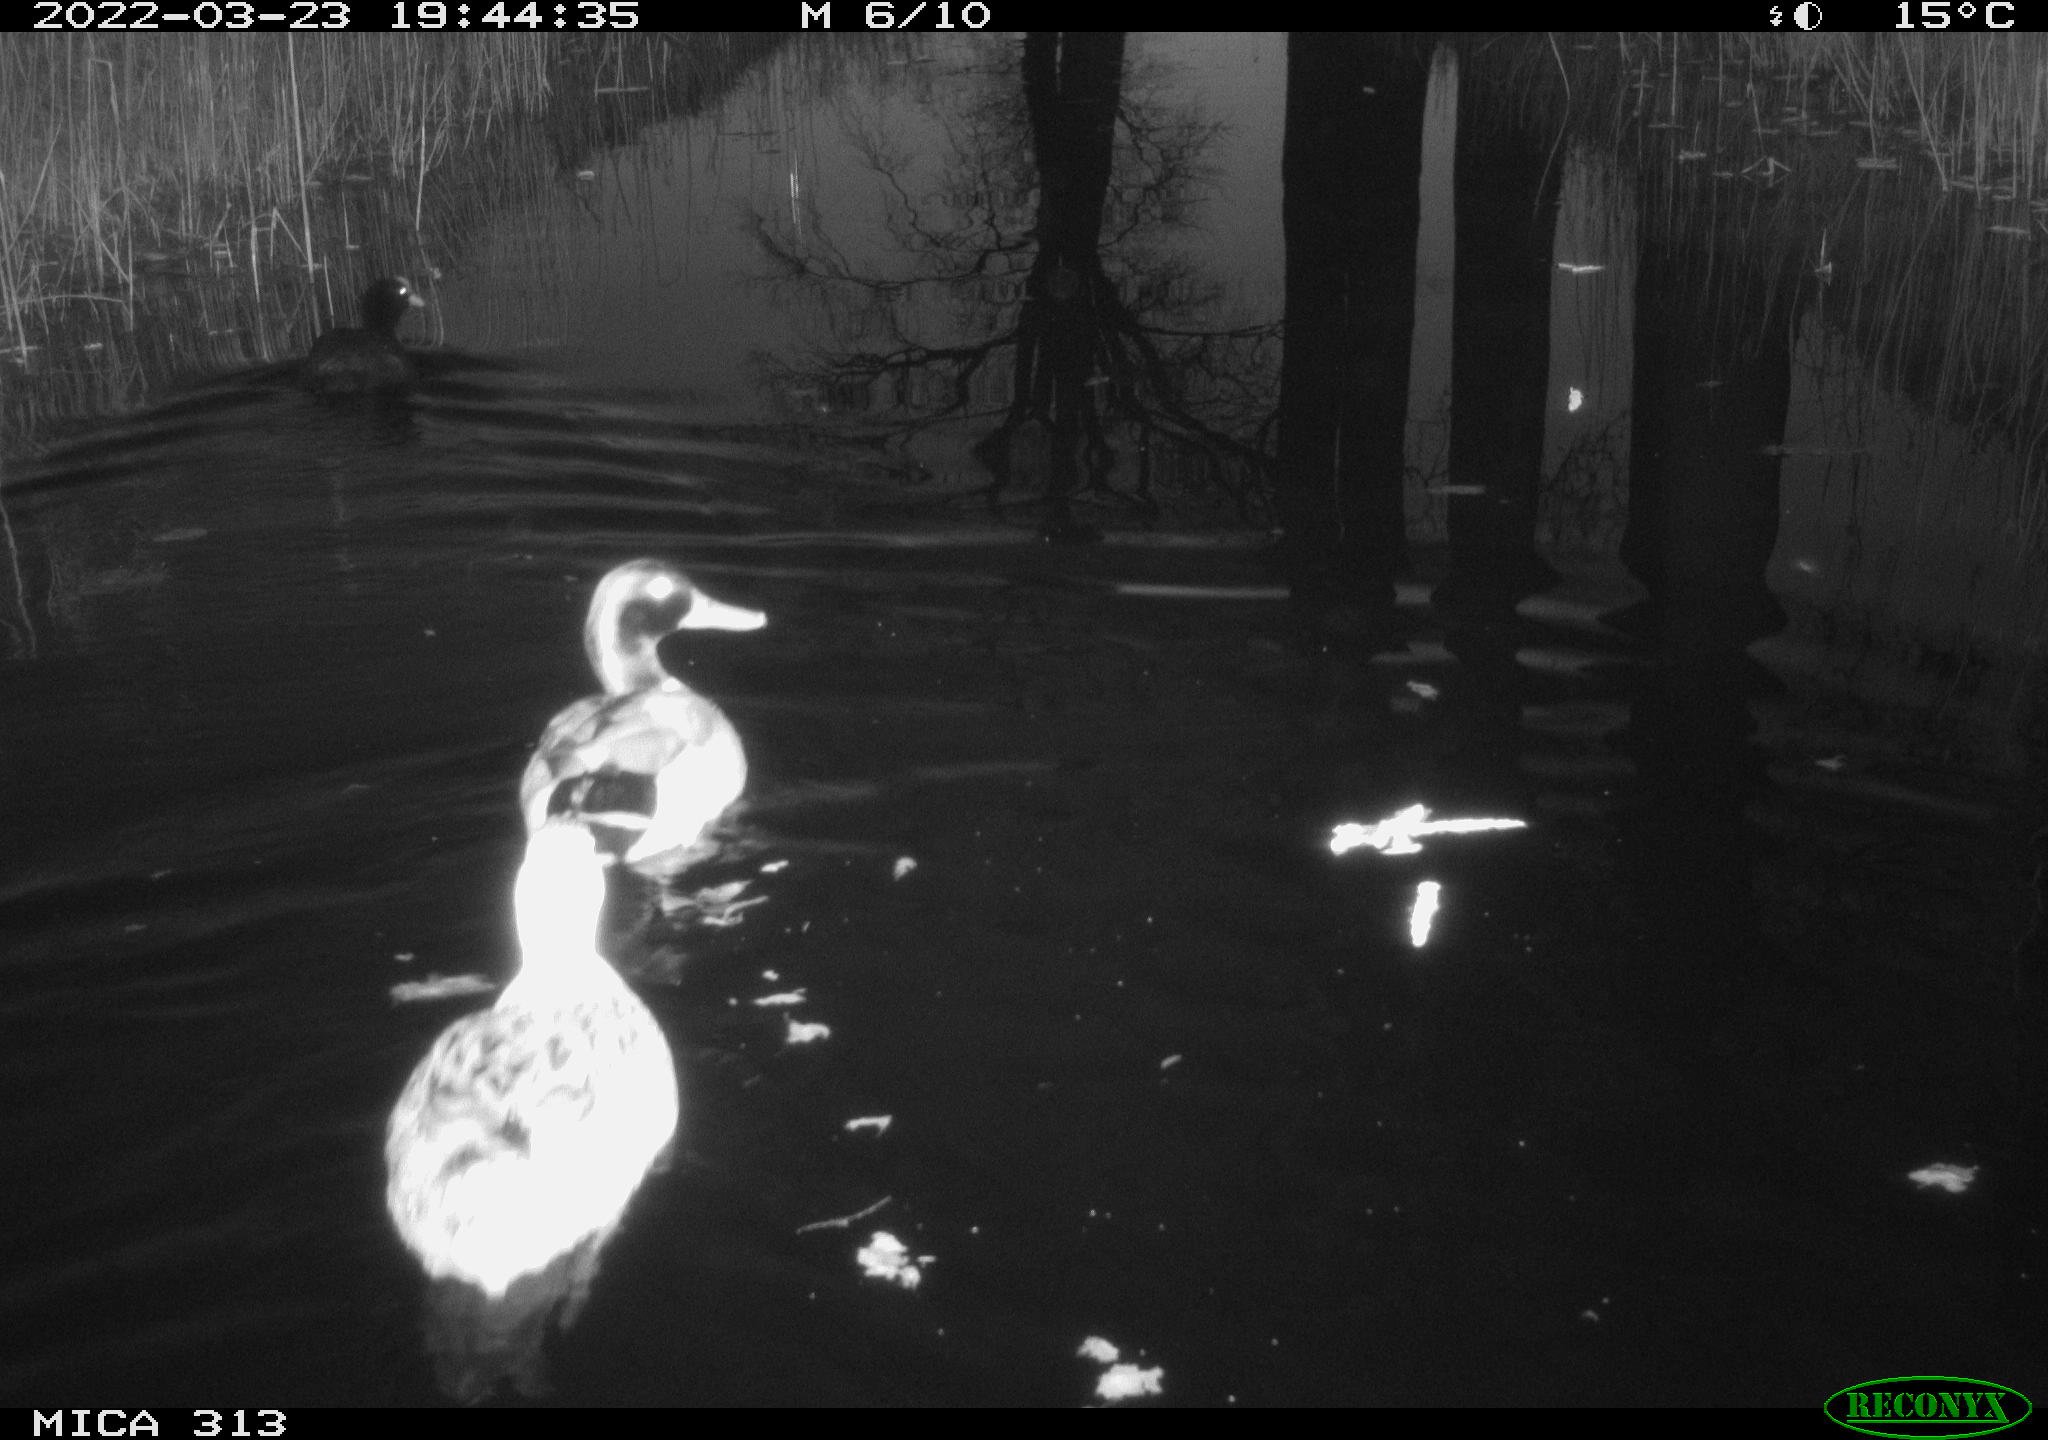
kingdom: Animalia
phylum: Chordata
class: Aves
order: Anseriformes
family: Anatidae
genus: Anas
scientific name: Anas platyrhynchos
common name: Mallard
